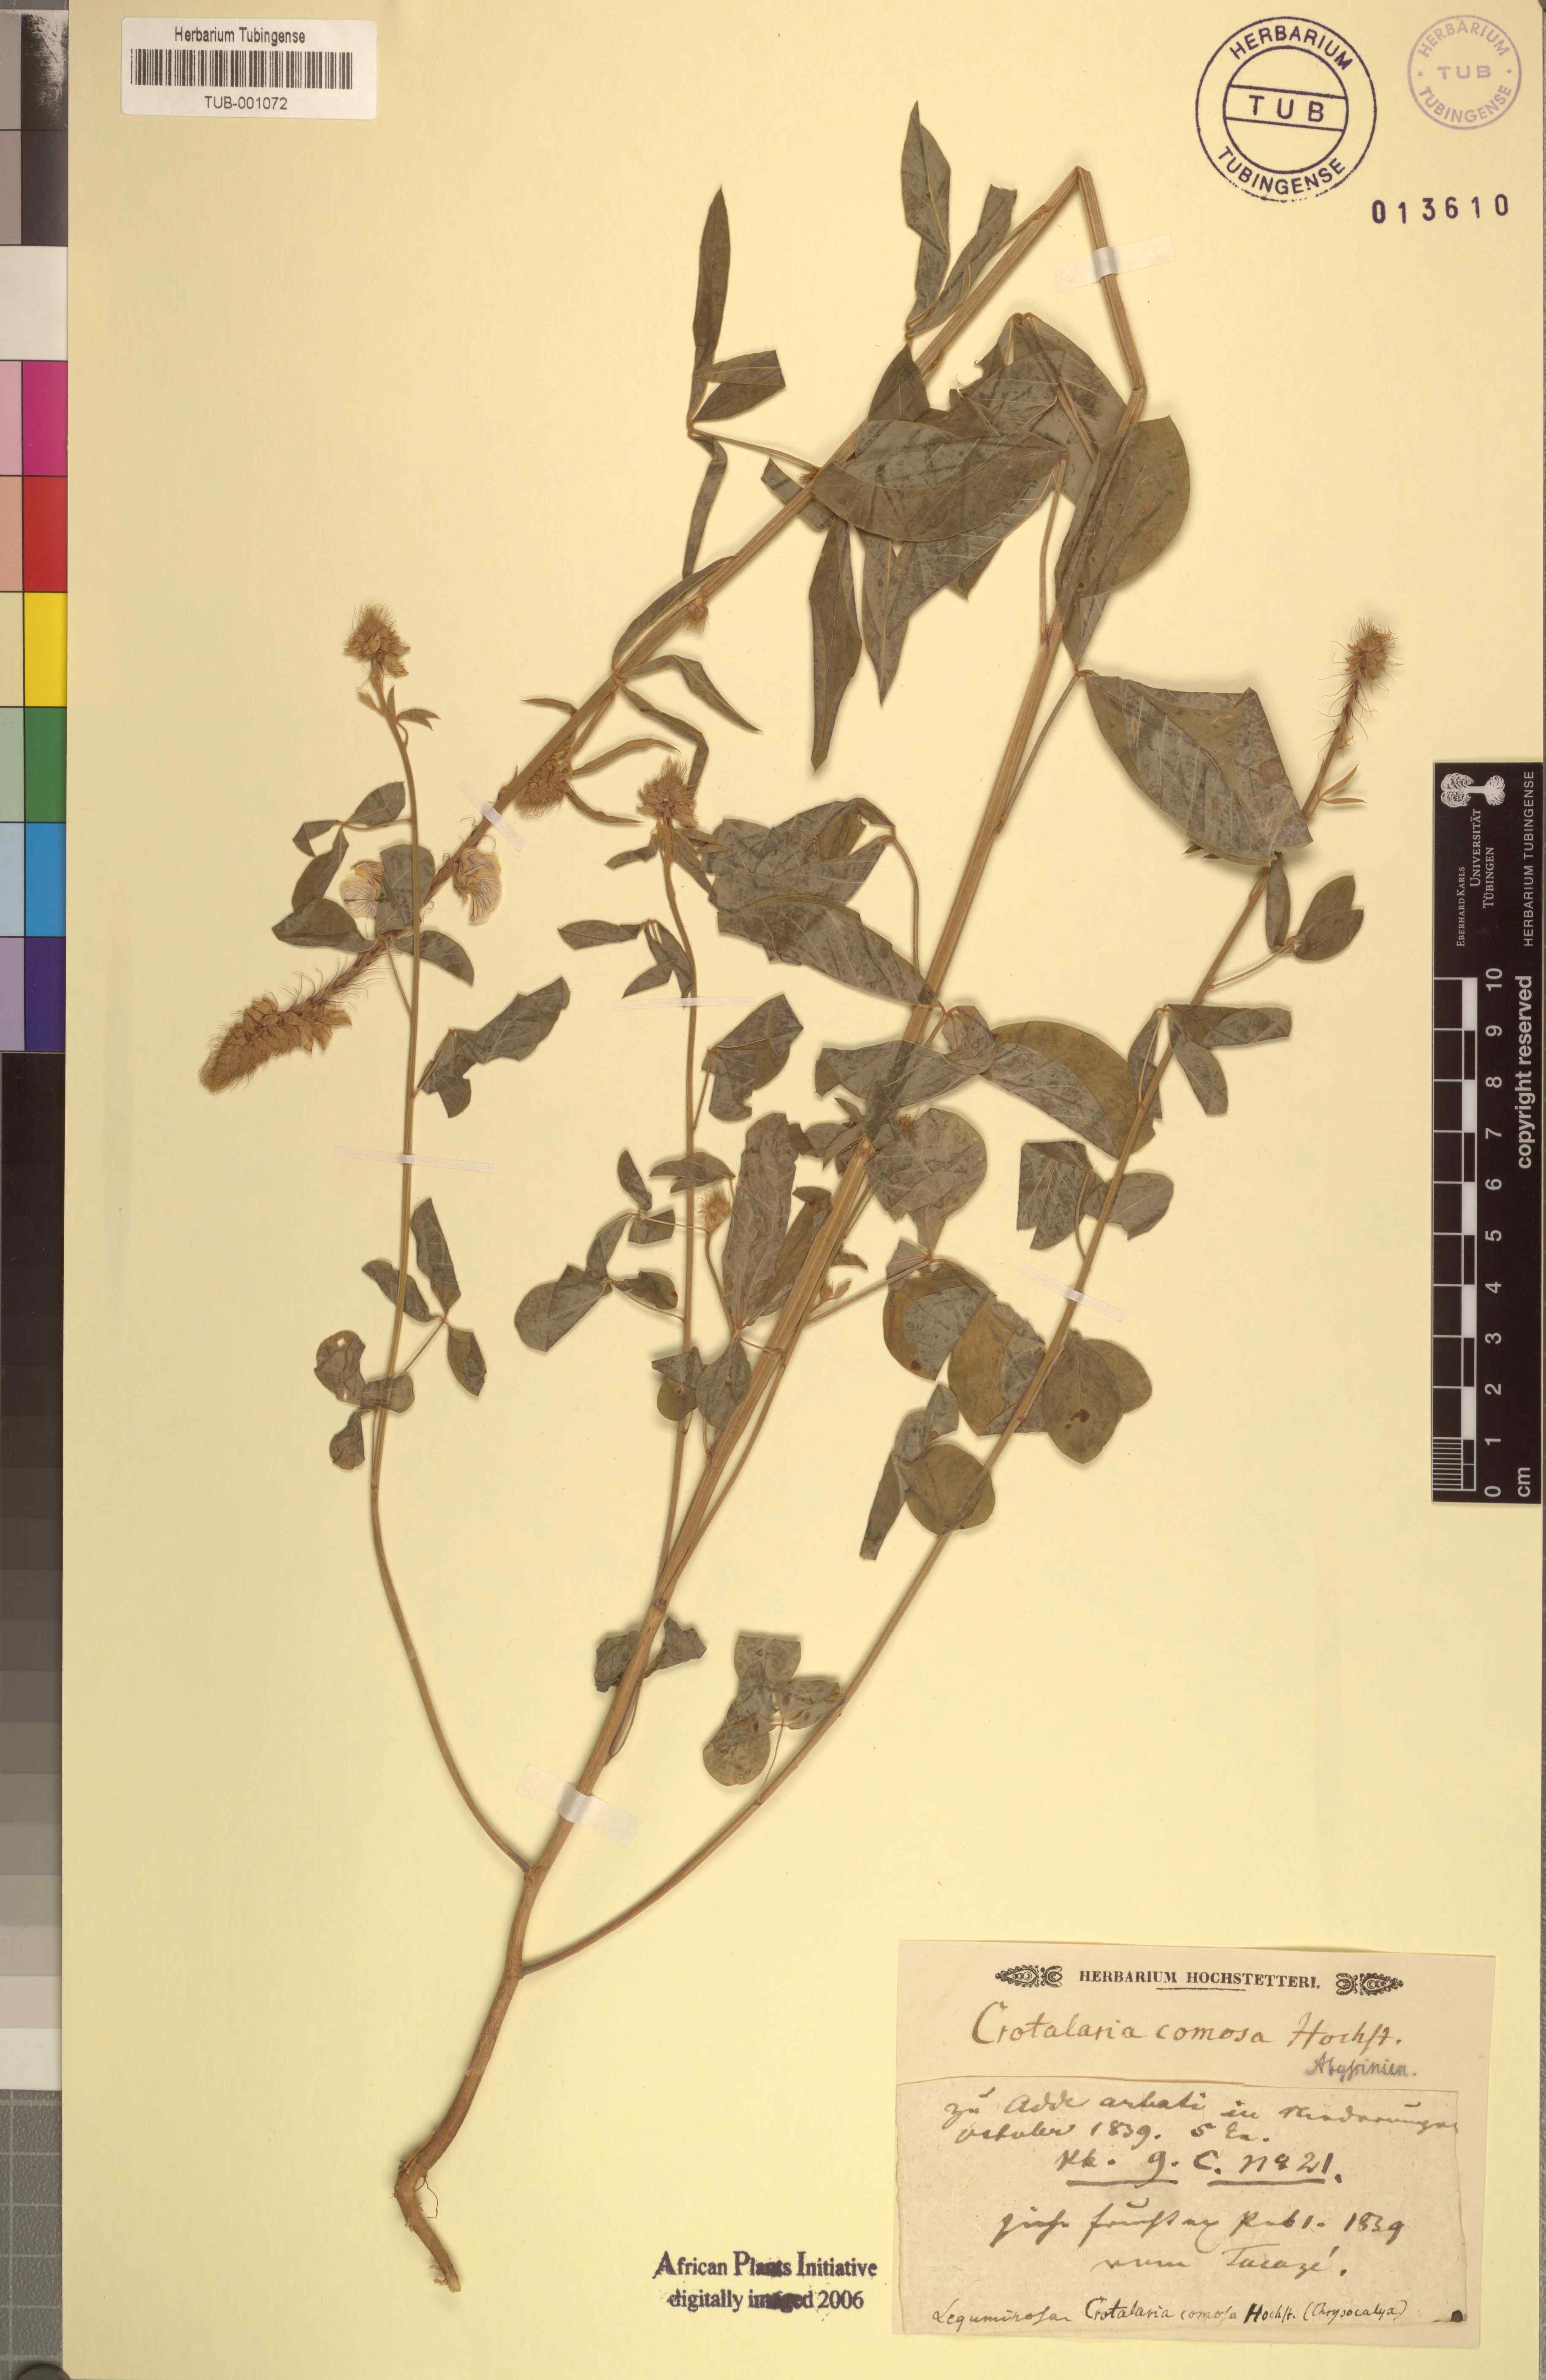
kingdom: Plantae
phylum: Tracheophyta
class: Magnoliopsida
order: Fabales
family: Fabaceae
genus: Crotalaria
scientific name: Crotalaria comosa
